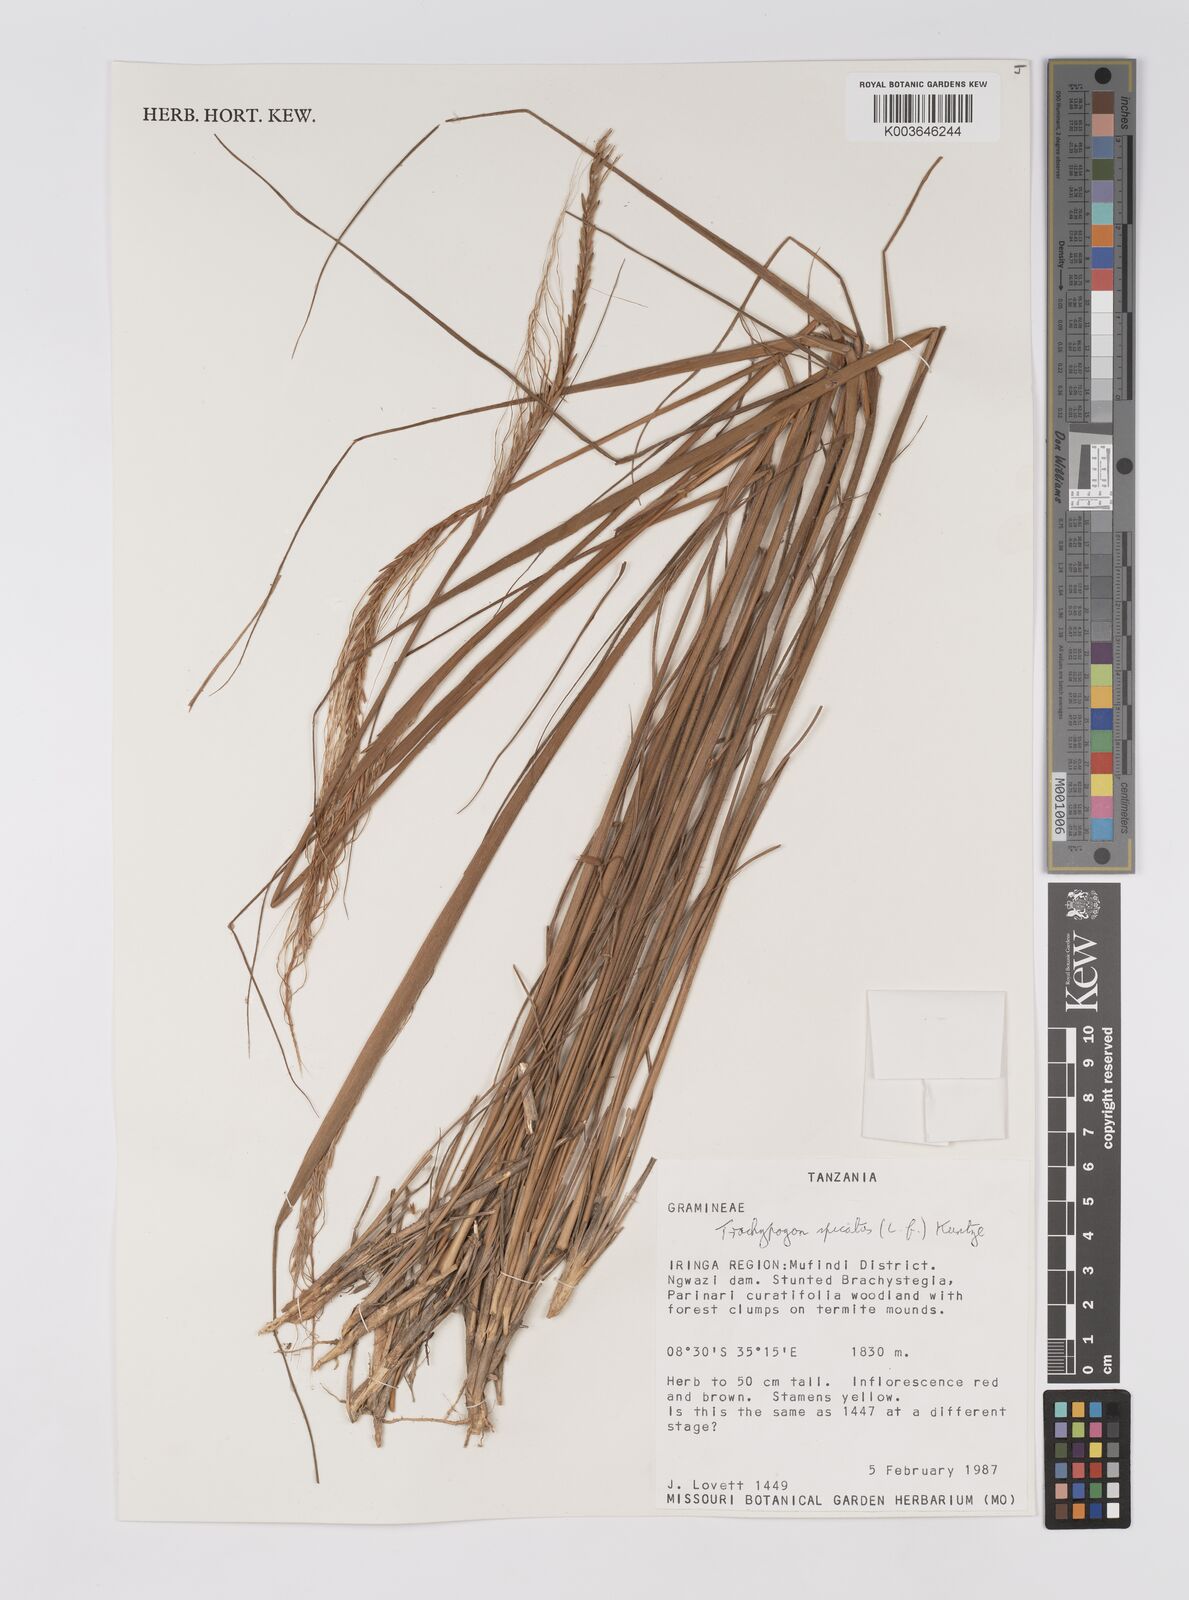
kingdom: Plantae
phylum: Tracheophyta
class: Liliopsida
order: Poales
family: Poaceae
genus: Trachypogon
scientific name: Trachypogon spicatus
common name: Crinkle-awn
